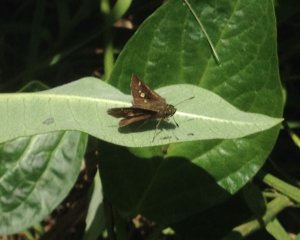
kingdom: Animalia
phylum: Arthropoda
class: Insecta
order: Lepidoptera
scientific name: Lepidoptera
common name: Butterflies
